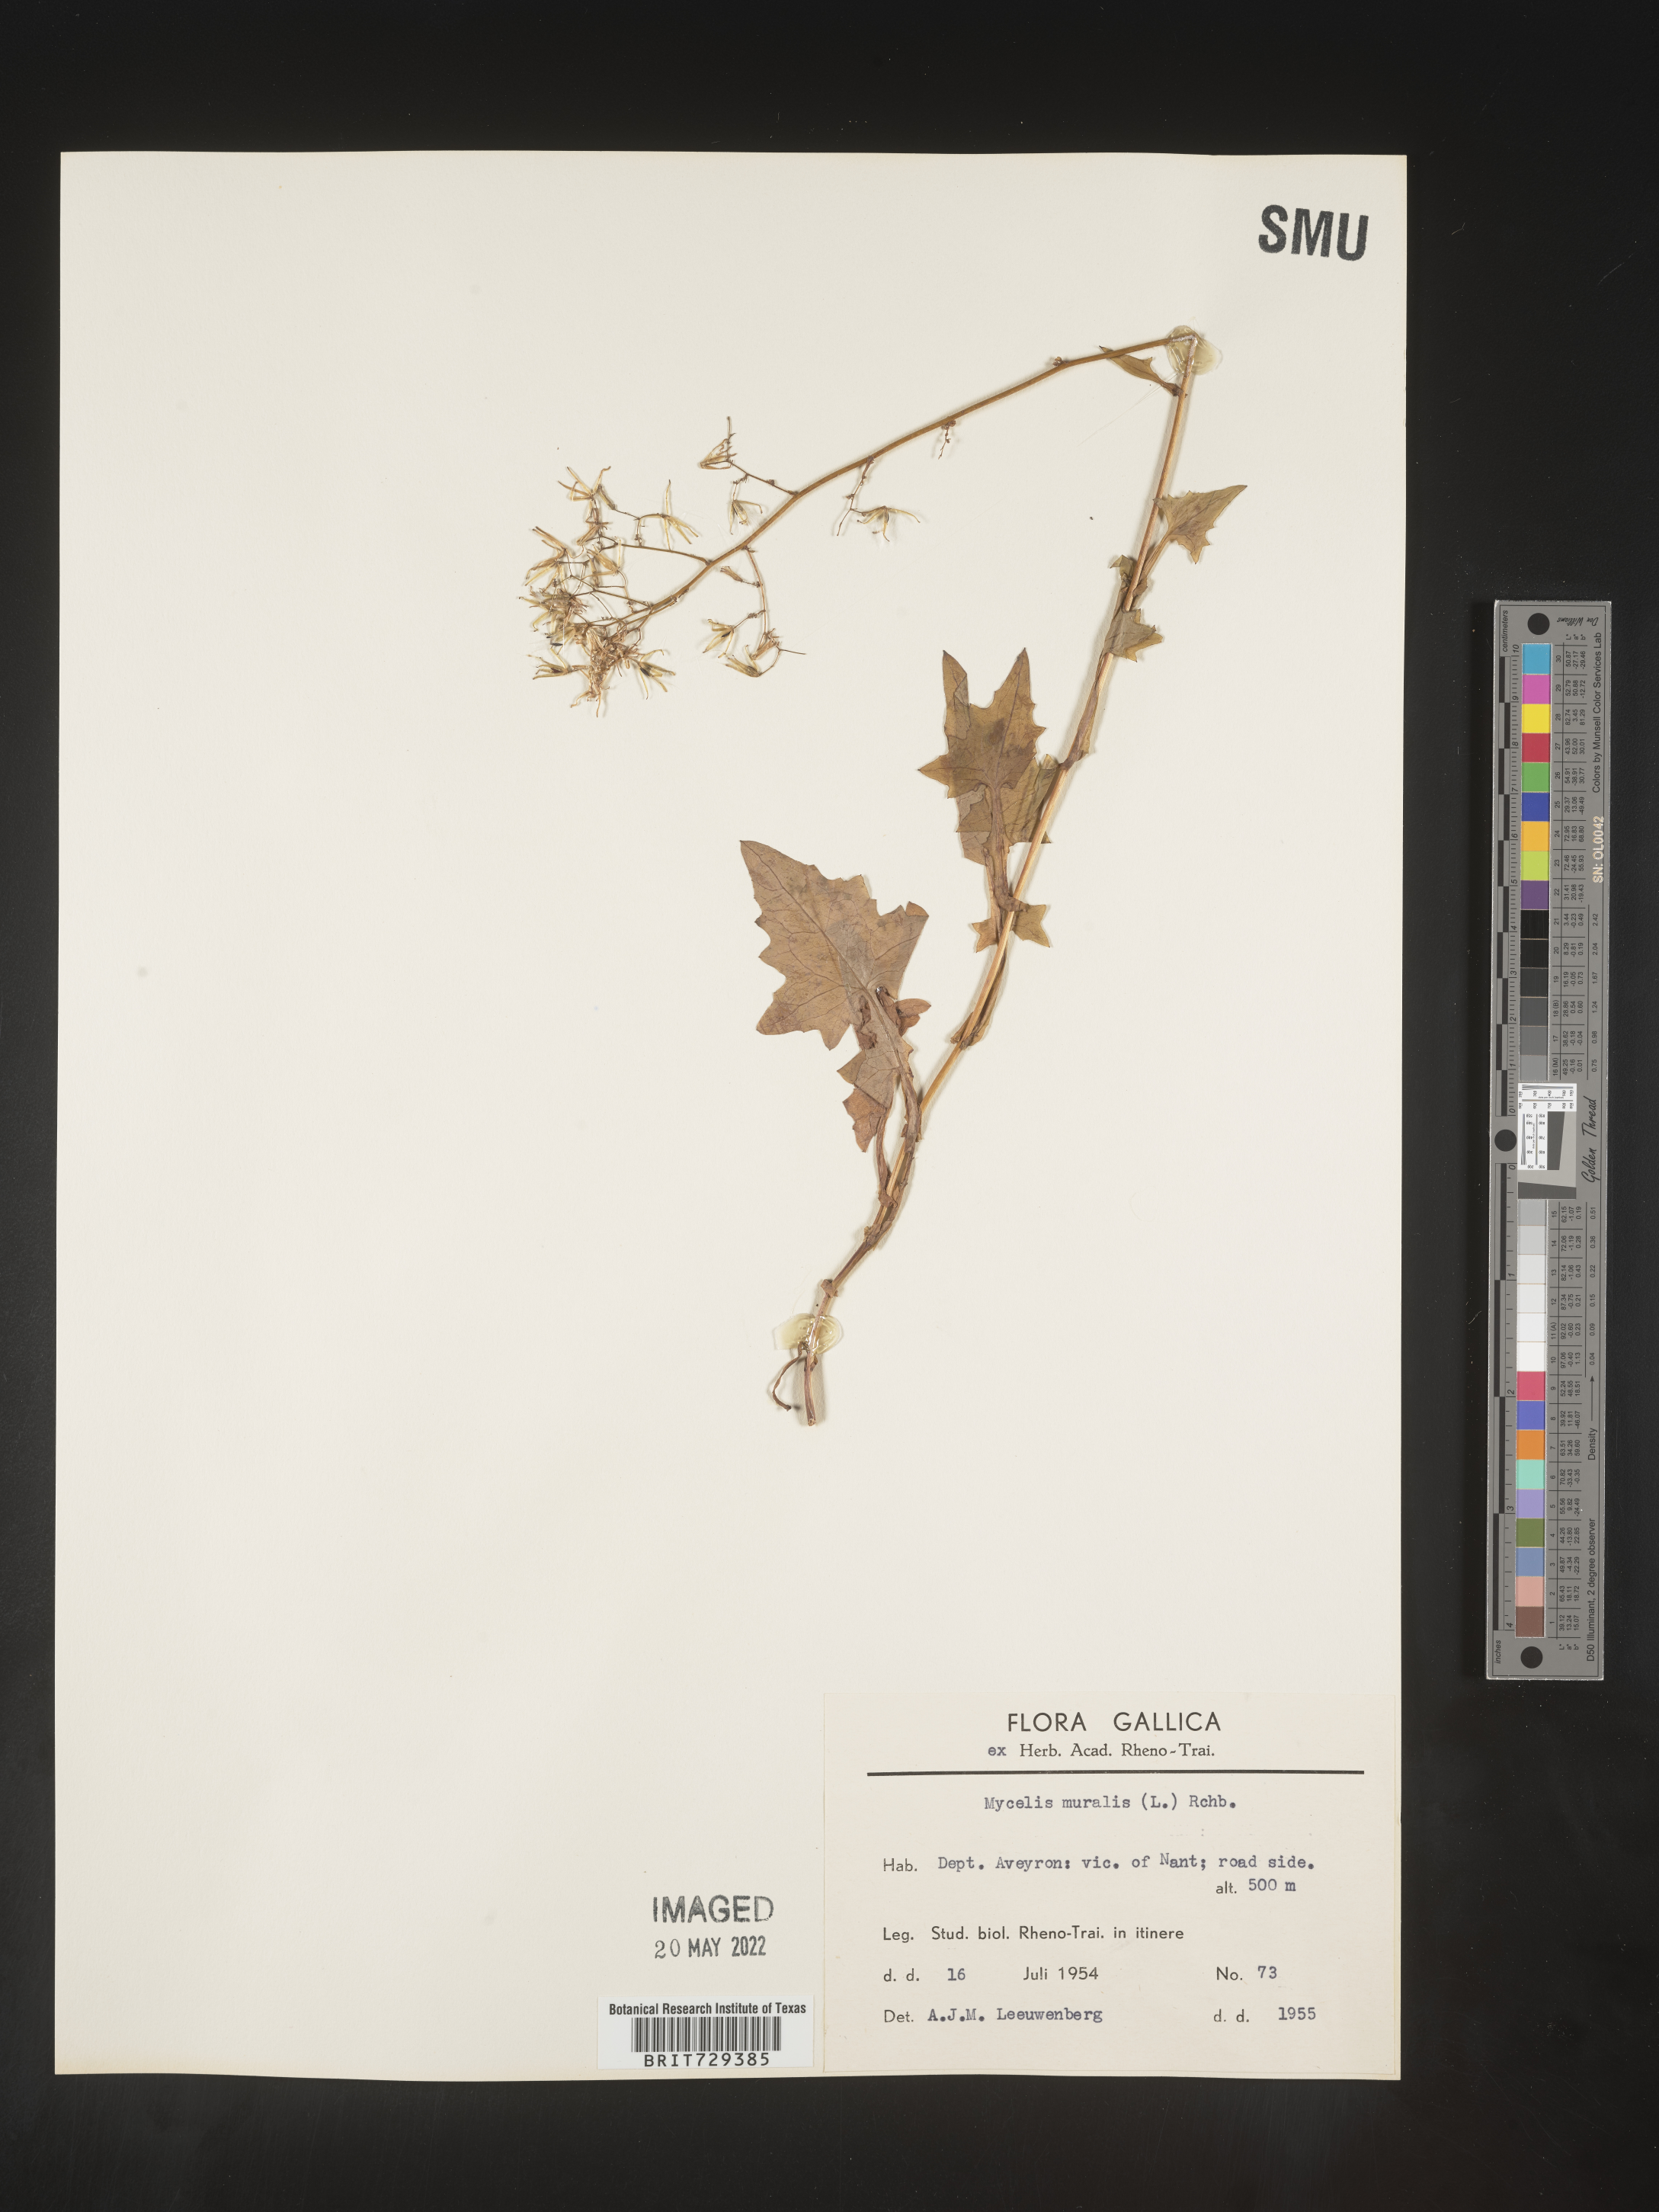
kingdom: Plantae
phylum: Tracheophyta
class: Magnoliopsida
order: Asterales
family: Asteraceae
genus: Lactuca
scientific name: Lactuca
